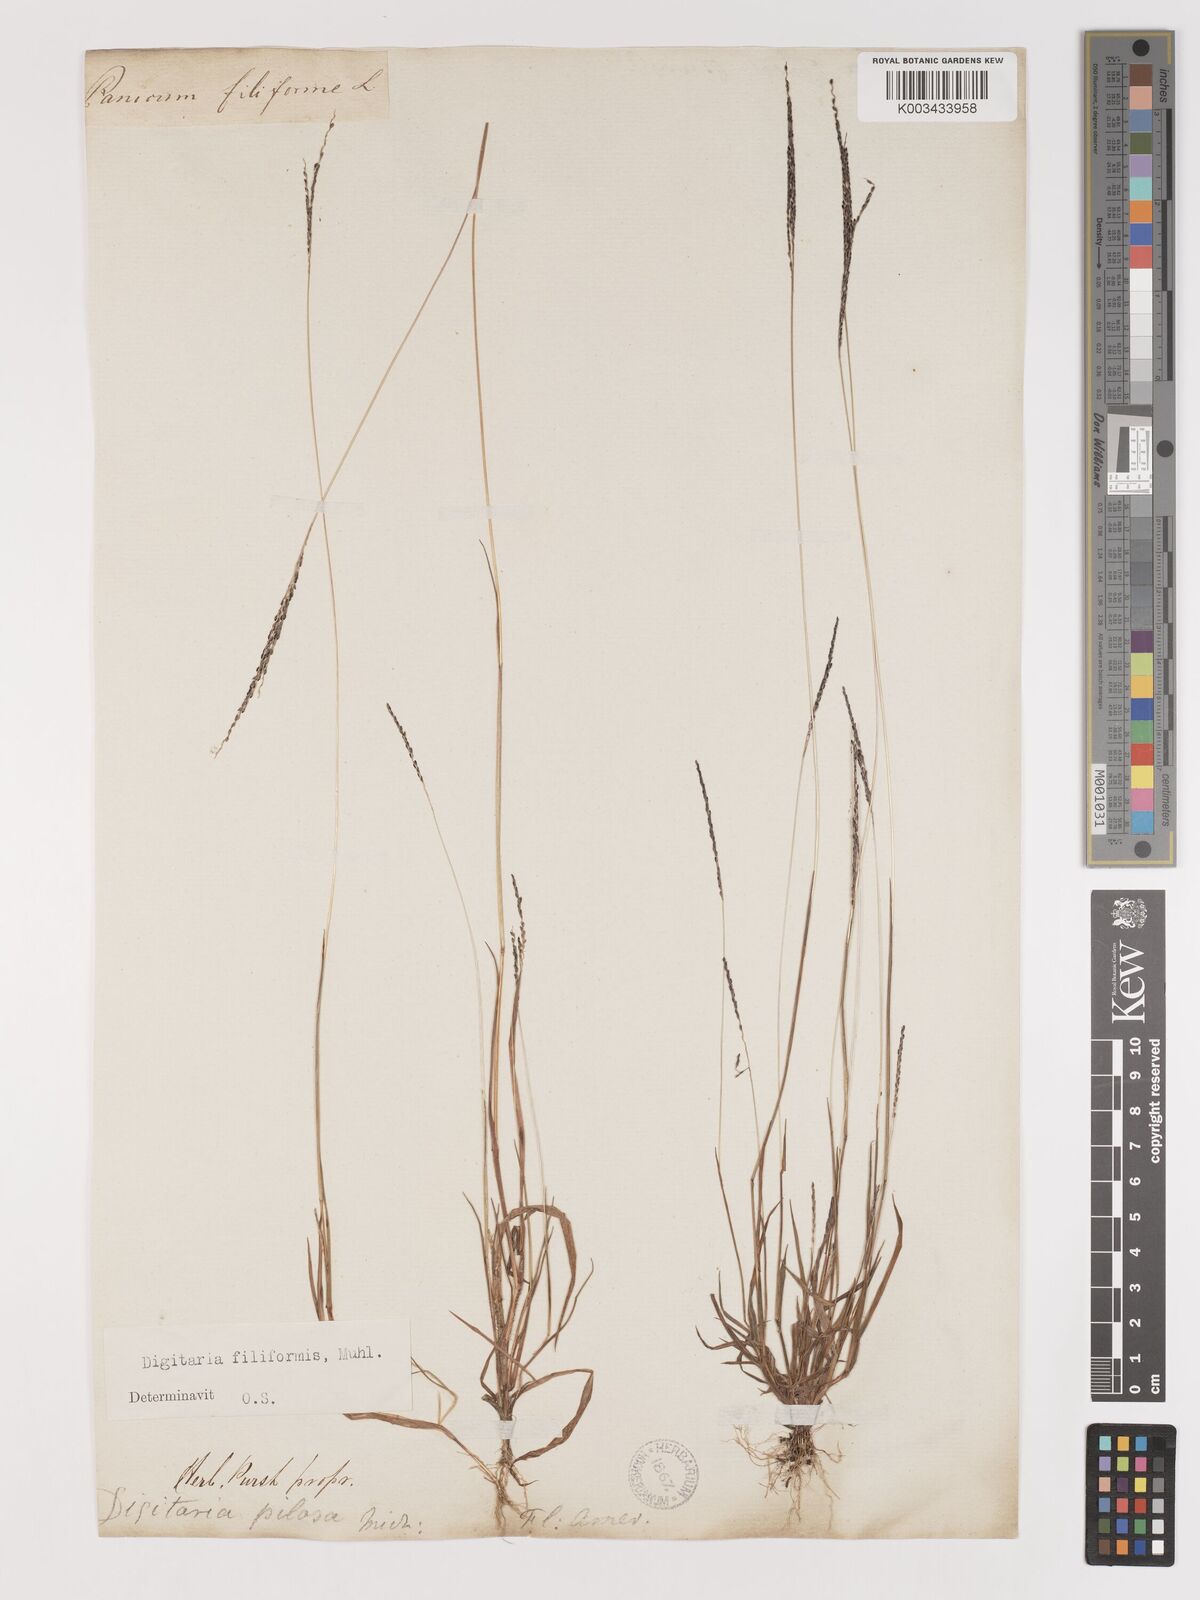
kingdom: Plantae
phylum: Tracheophyta
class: Liliopsida
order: Poales
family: Poaceae
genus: Digitaria
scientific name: Digitaria filiformis
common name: Slender crabgrass
